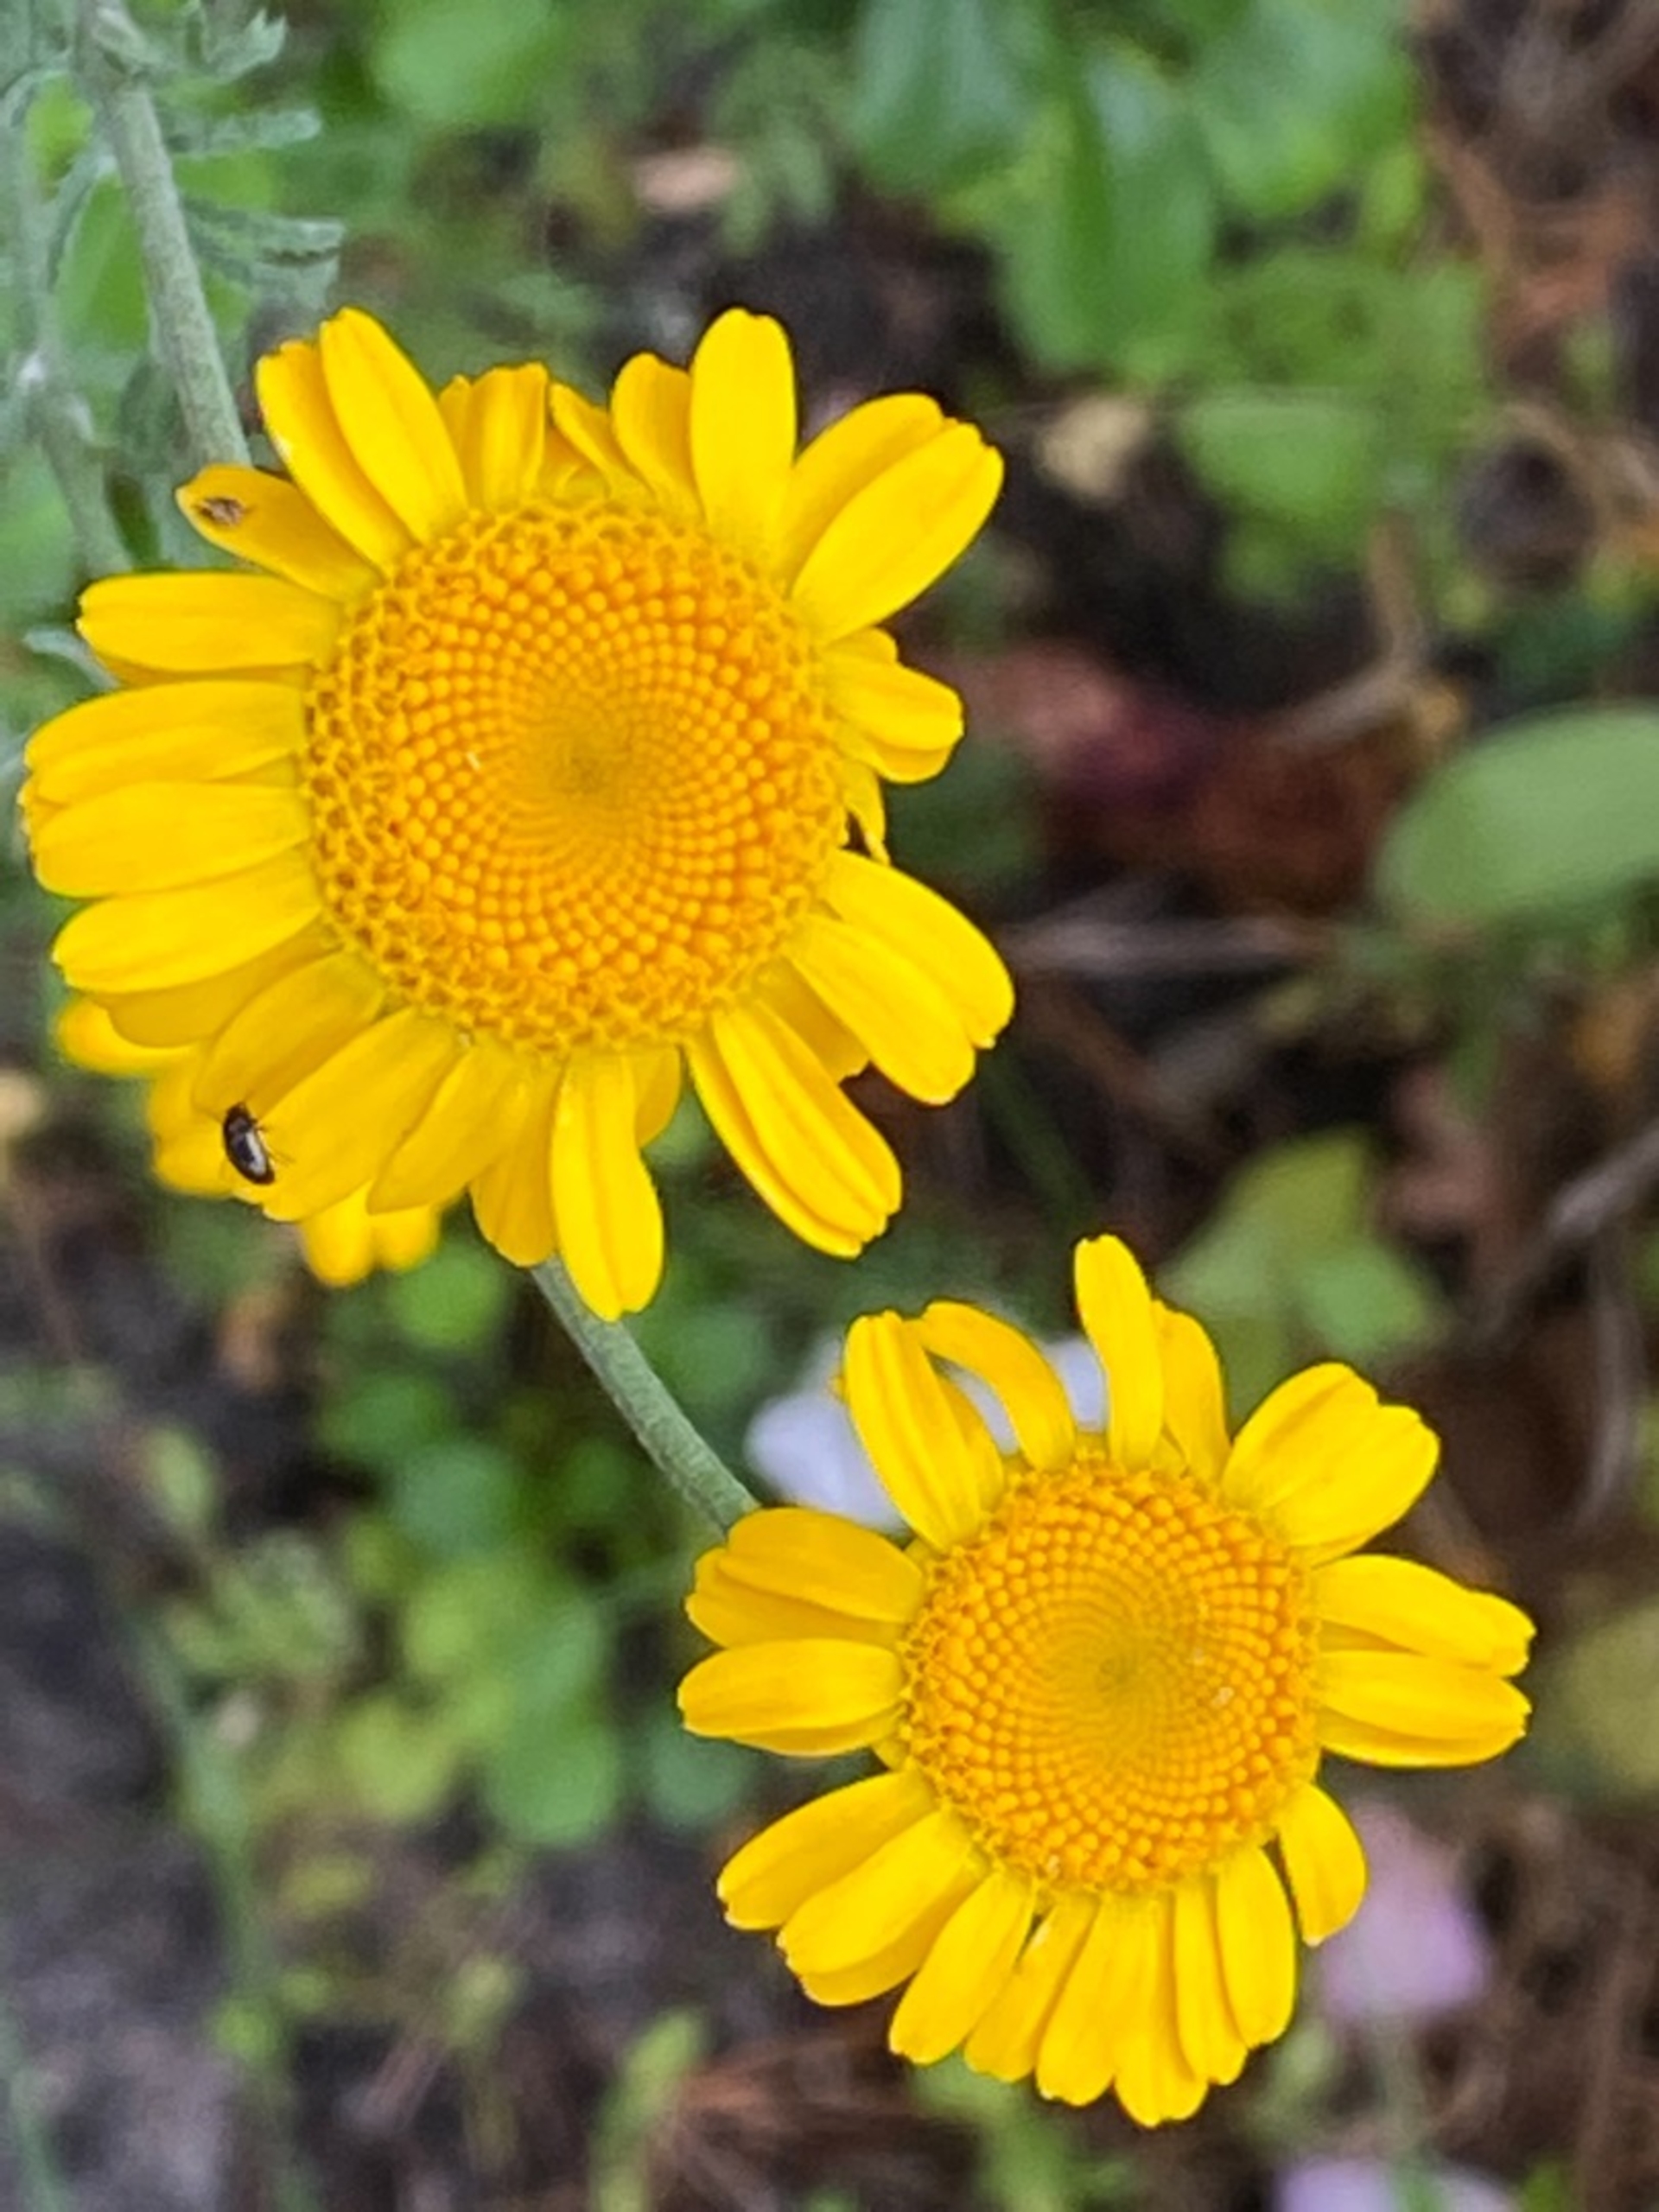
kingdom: Plantae
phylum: Tracheophyta
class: Magnoliopsida
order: Asterales
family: Asteraceae
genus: Cota
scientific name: Cota tinctoria
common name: Farve-gåseurt
